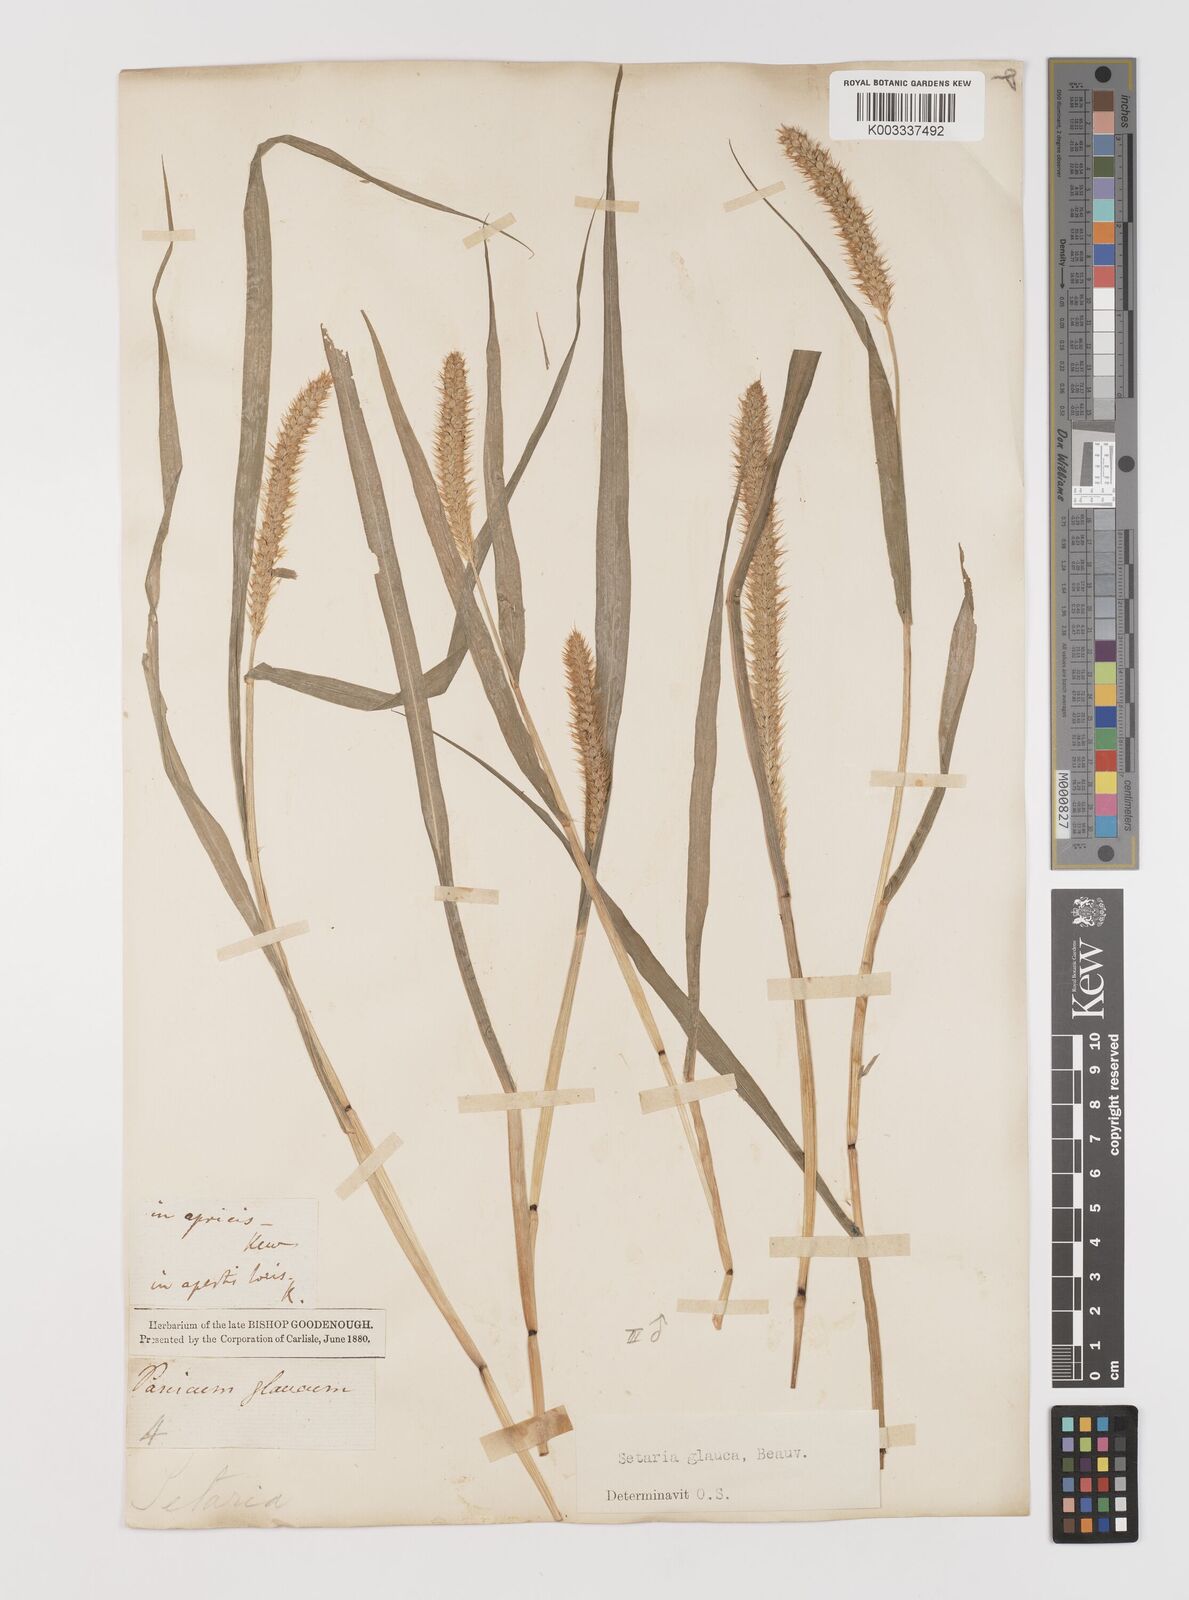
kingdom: Plantae
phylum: Tracheophyta
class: Liliopsida
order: Poales
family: Poaceae
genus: Setaria
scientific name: Setaria pumila
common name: Yellow bristle-grass
